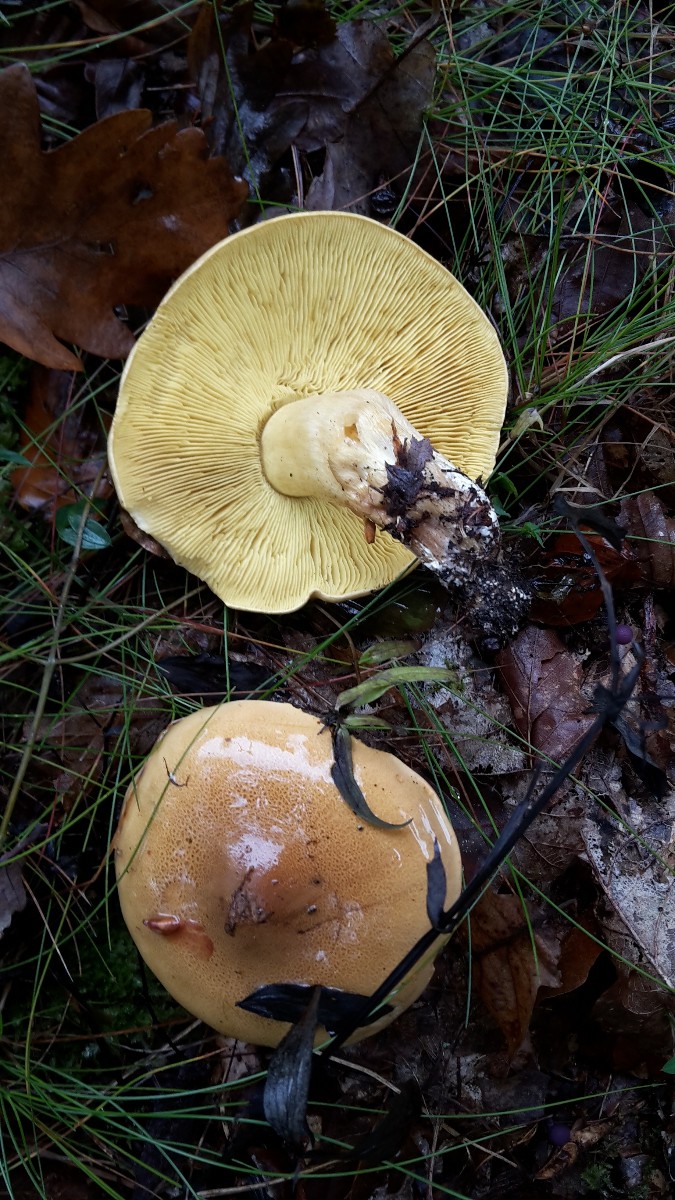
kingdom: Fungi
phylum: Basidiomycota
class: Agaricomycetes
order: Agaricales
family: Tricholomataceae
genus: Tricholoma
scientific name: Tricholoma frondosae
